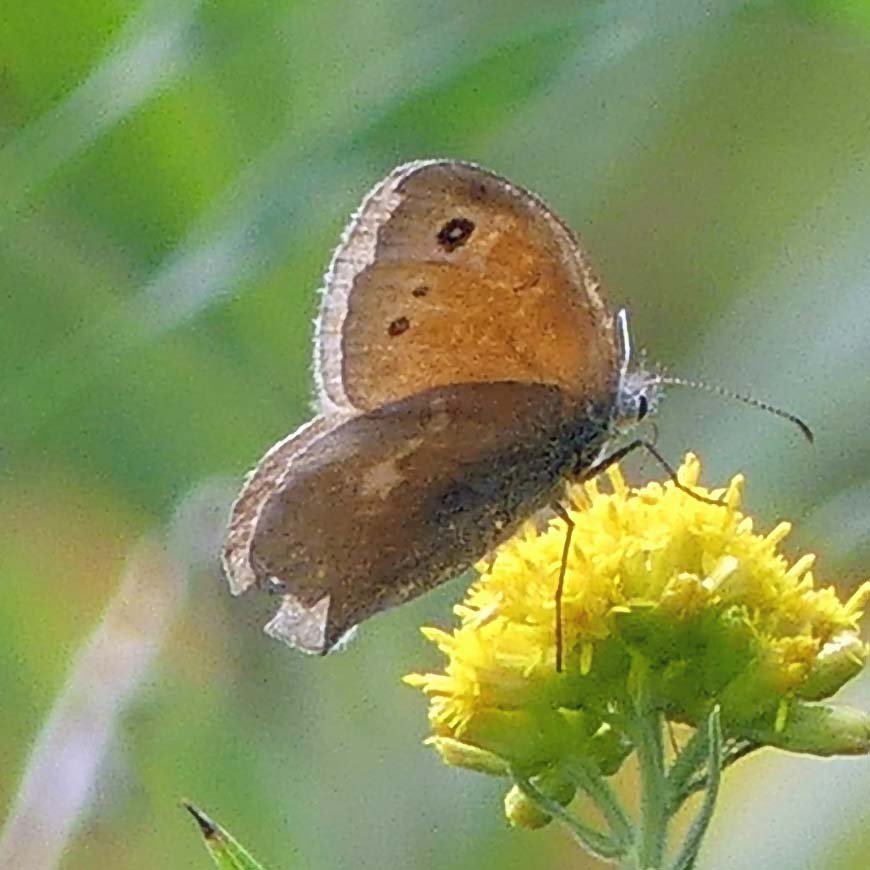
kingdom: Animalia
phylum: Arthropoda
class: Insecta
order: Lepidoptera
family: Nymphalidae
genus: Coenonympha
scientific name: Coenonympha tullia
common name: Large Heath
